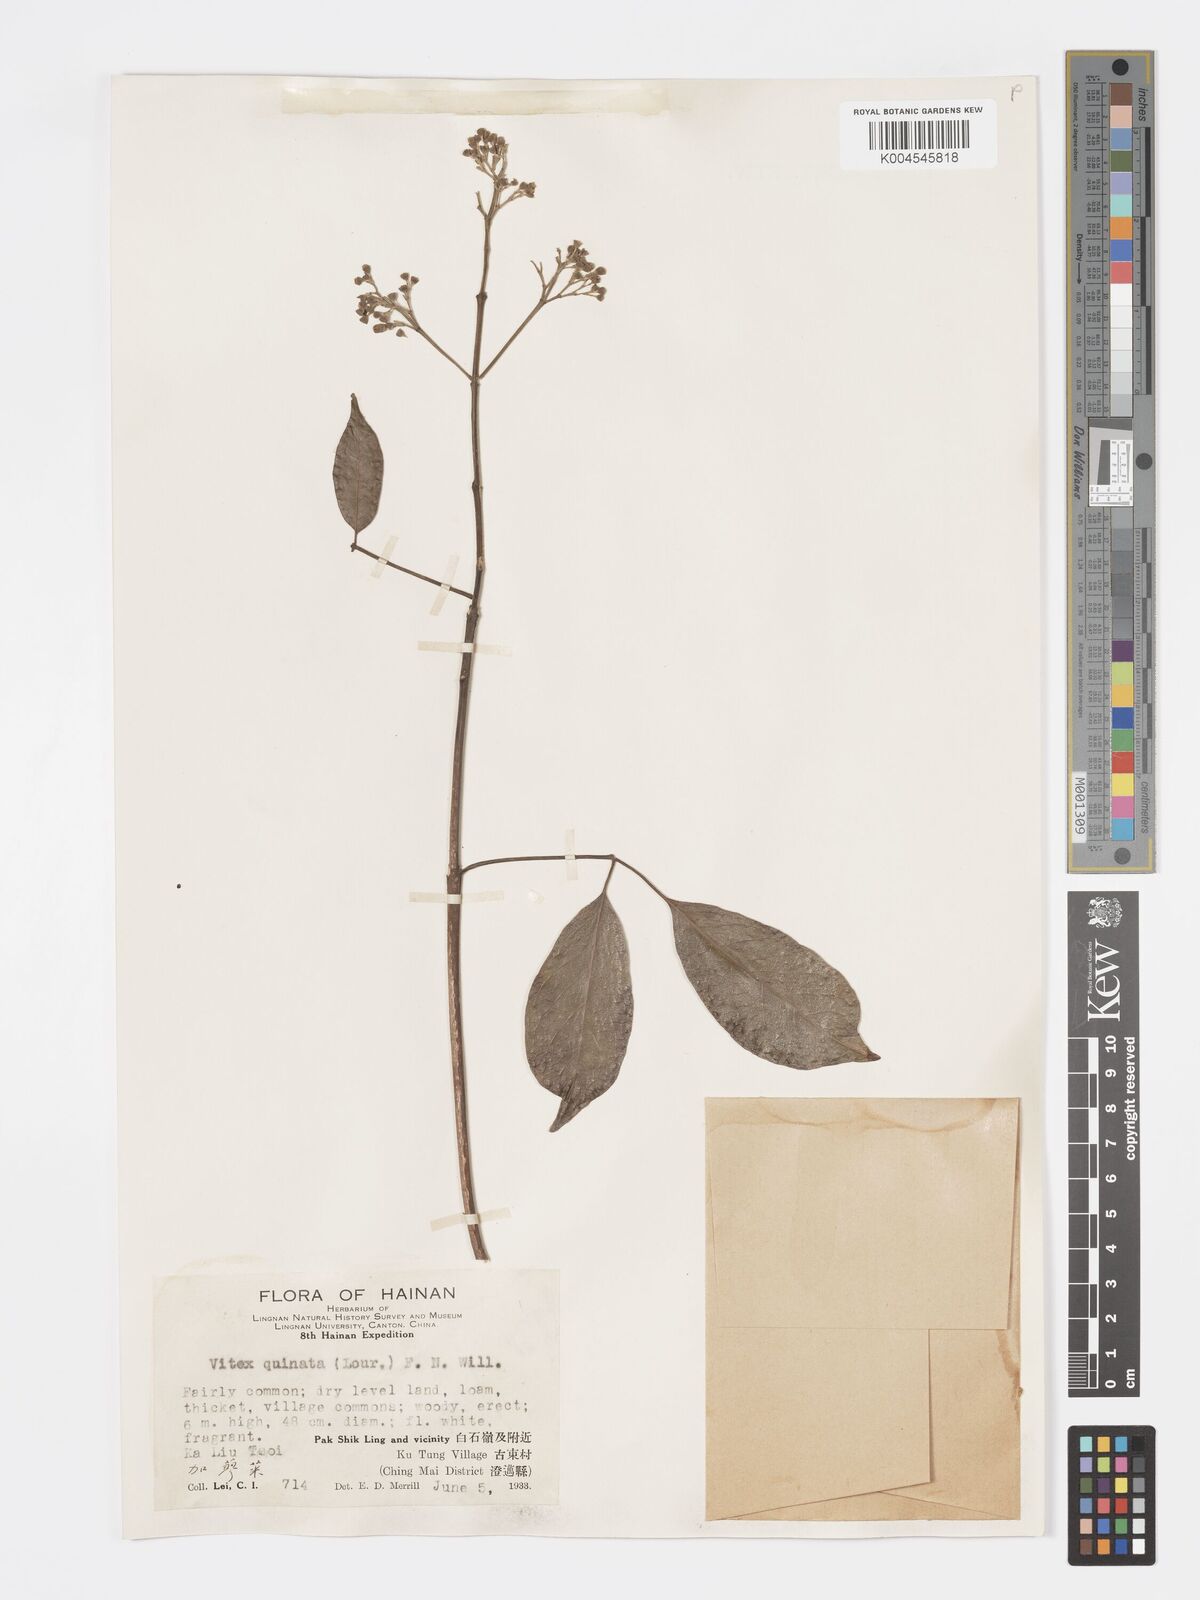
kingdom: Plantae
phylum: Tracheophyta
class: Magnoliopsida
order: Lamiales
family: Lamiaceae
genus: Vitex
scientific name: Vitex quinata
